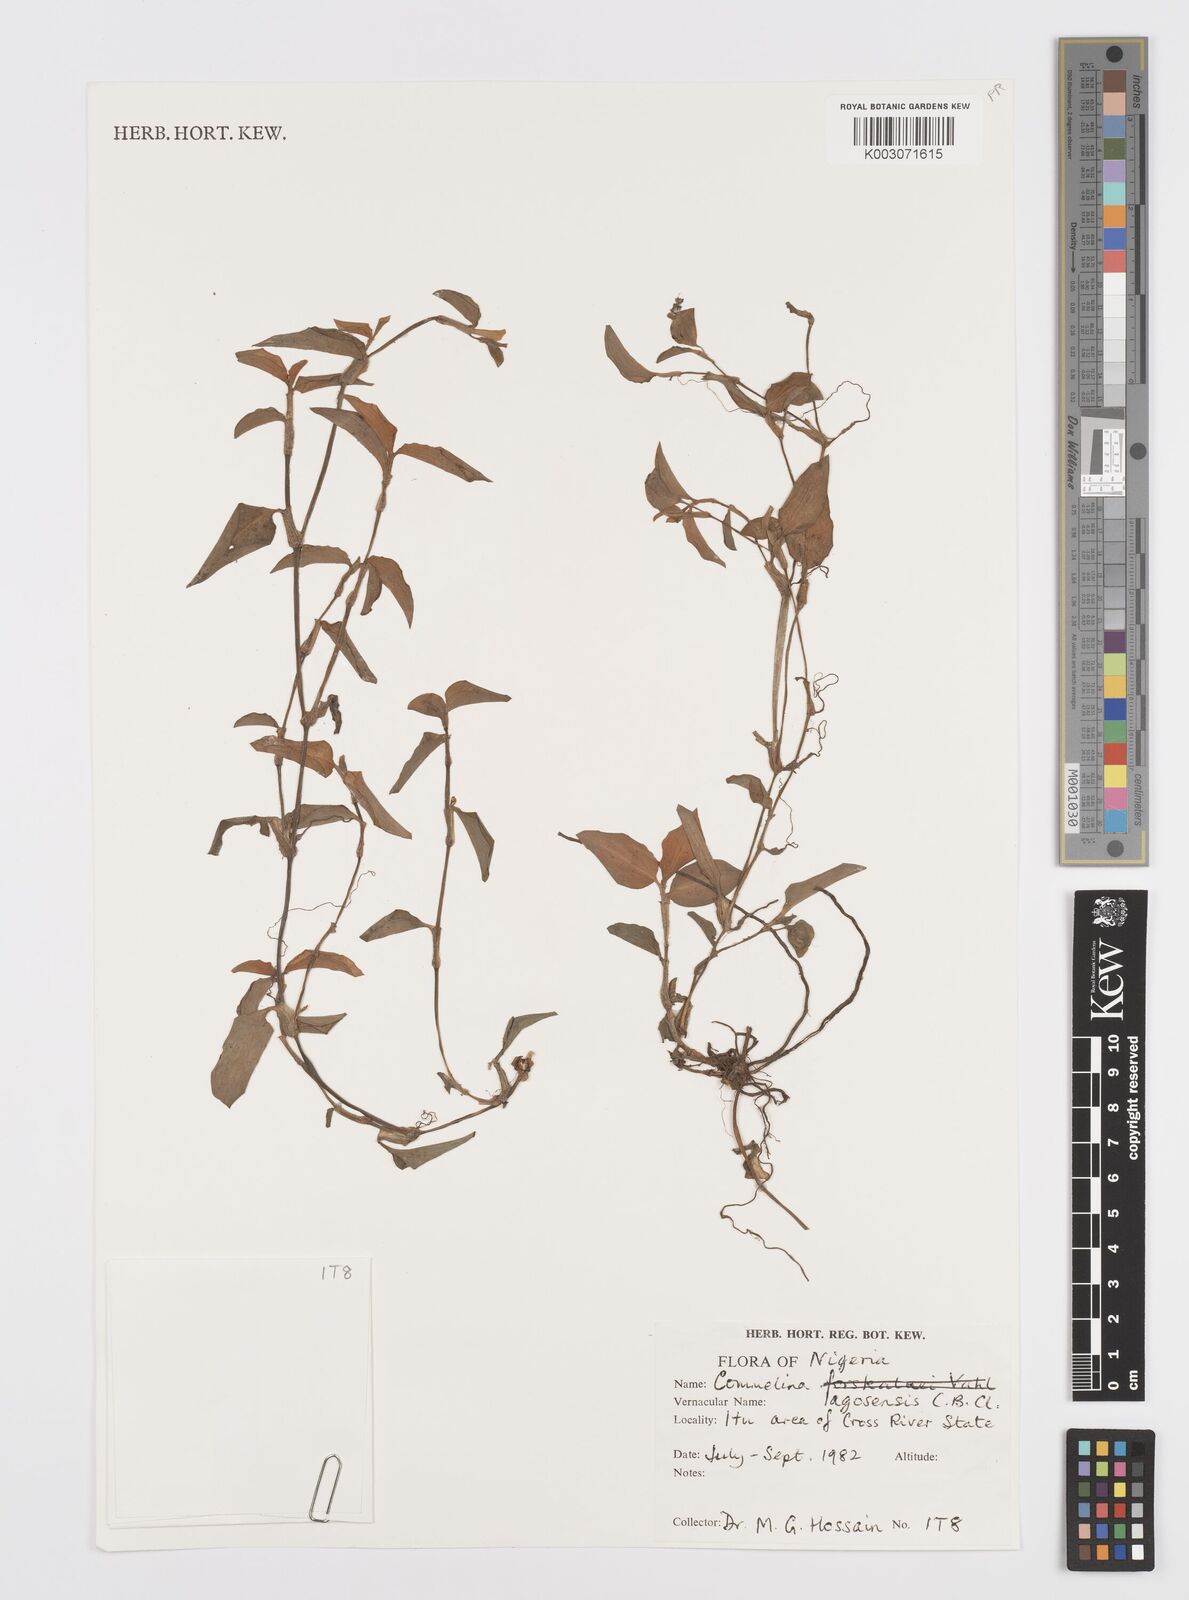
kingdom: Plantae
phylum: Tracheophyta
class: Liliopsida
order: Commelinales
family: Commelinaceae
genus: Commelina
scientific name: Commelina bracteosa
